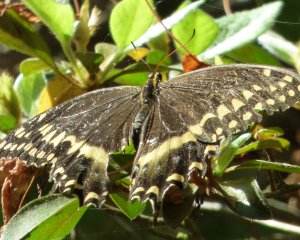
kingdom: Animalia
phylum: Arthropoda
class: Insecta
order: Lepidoptera
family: Papilionidae
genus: Pterourus
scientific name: Pterourus palamedes
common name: Palamedes Swallowtail
